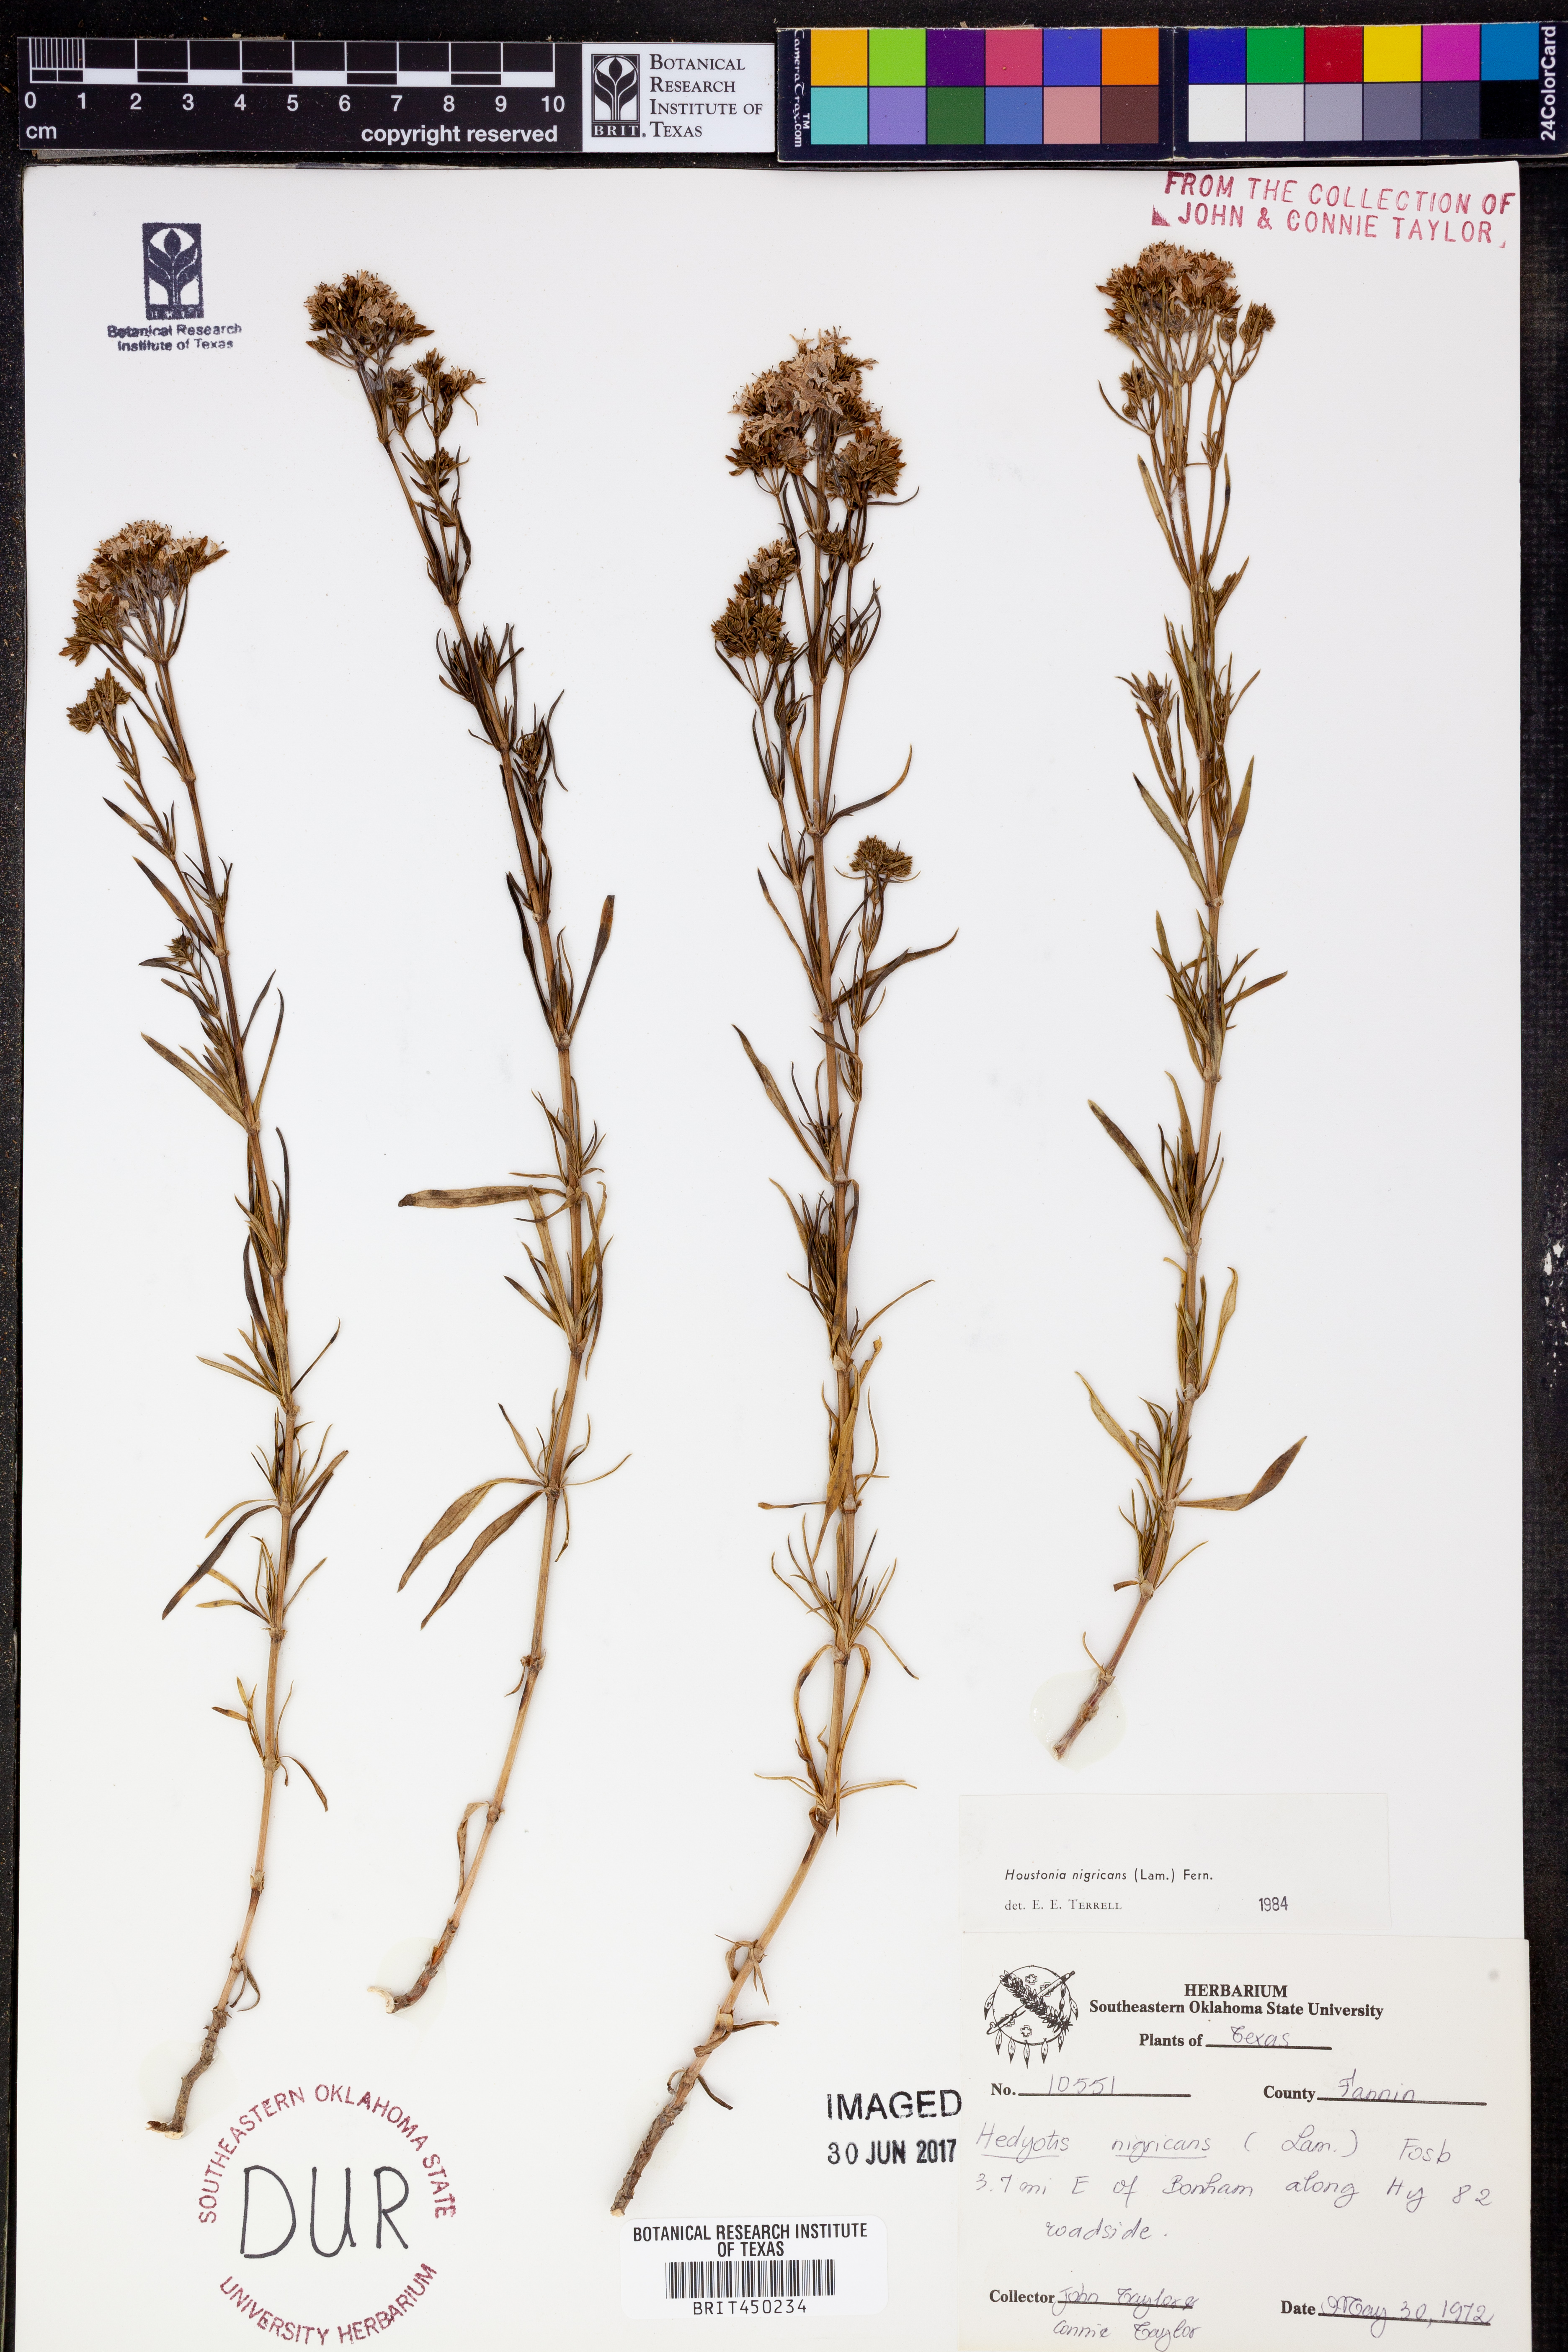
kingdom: Plantae
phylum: Tracheophyta
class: Magnoliopsida
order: Gentianales
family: Rubiaceae
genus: Stenaria
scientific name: Stenaria nigricans
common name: Diamondflowers
